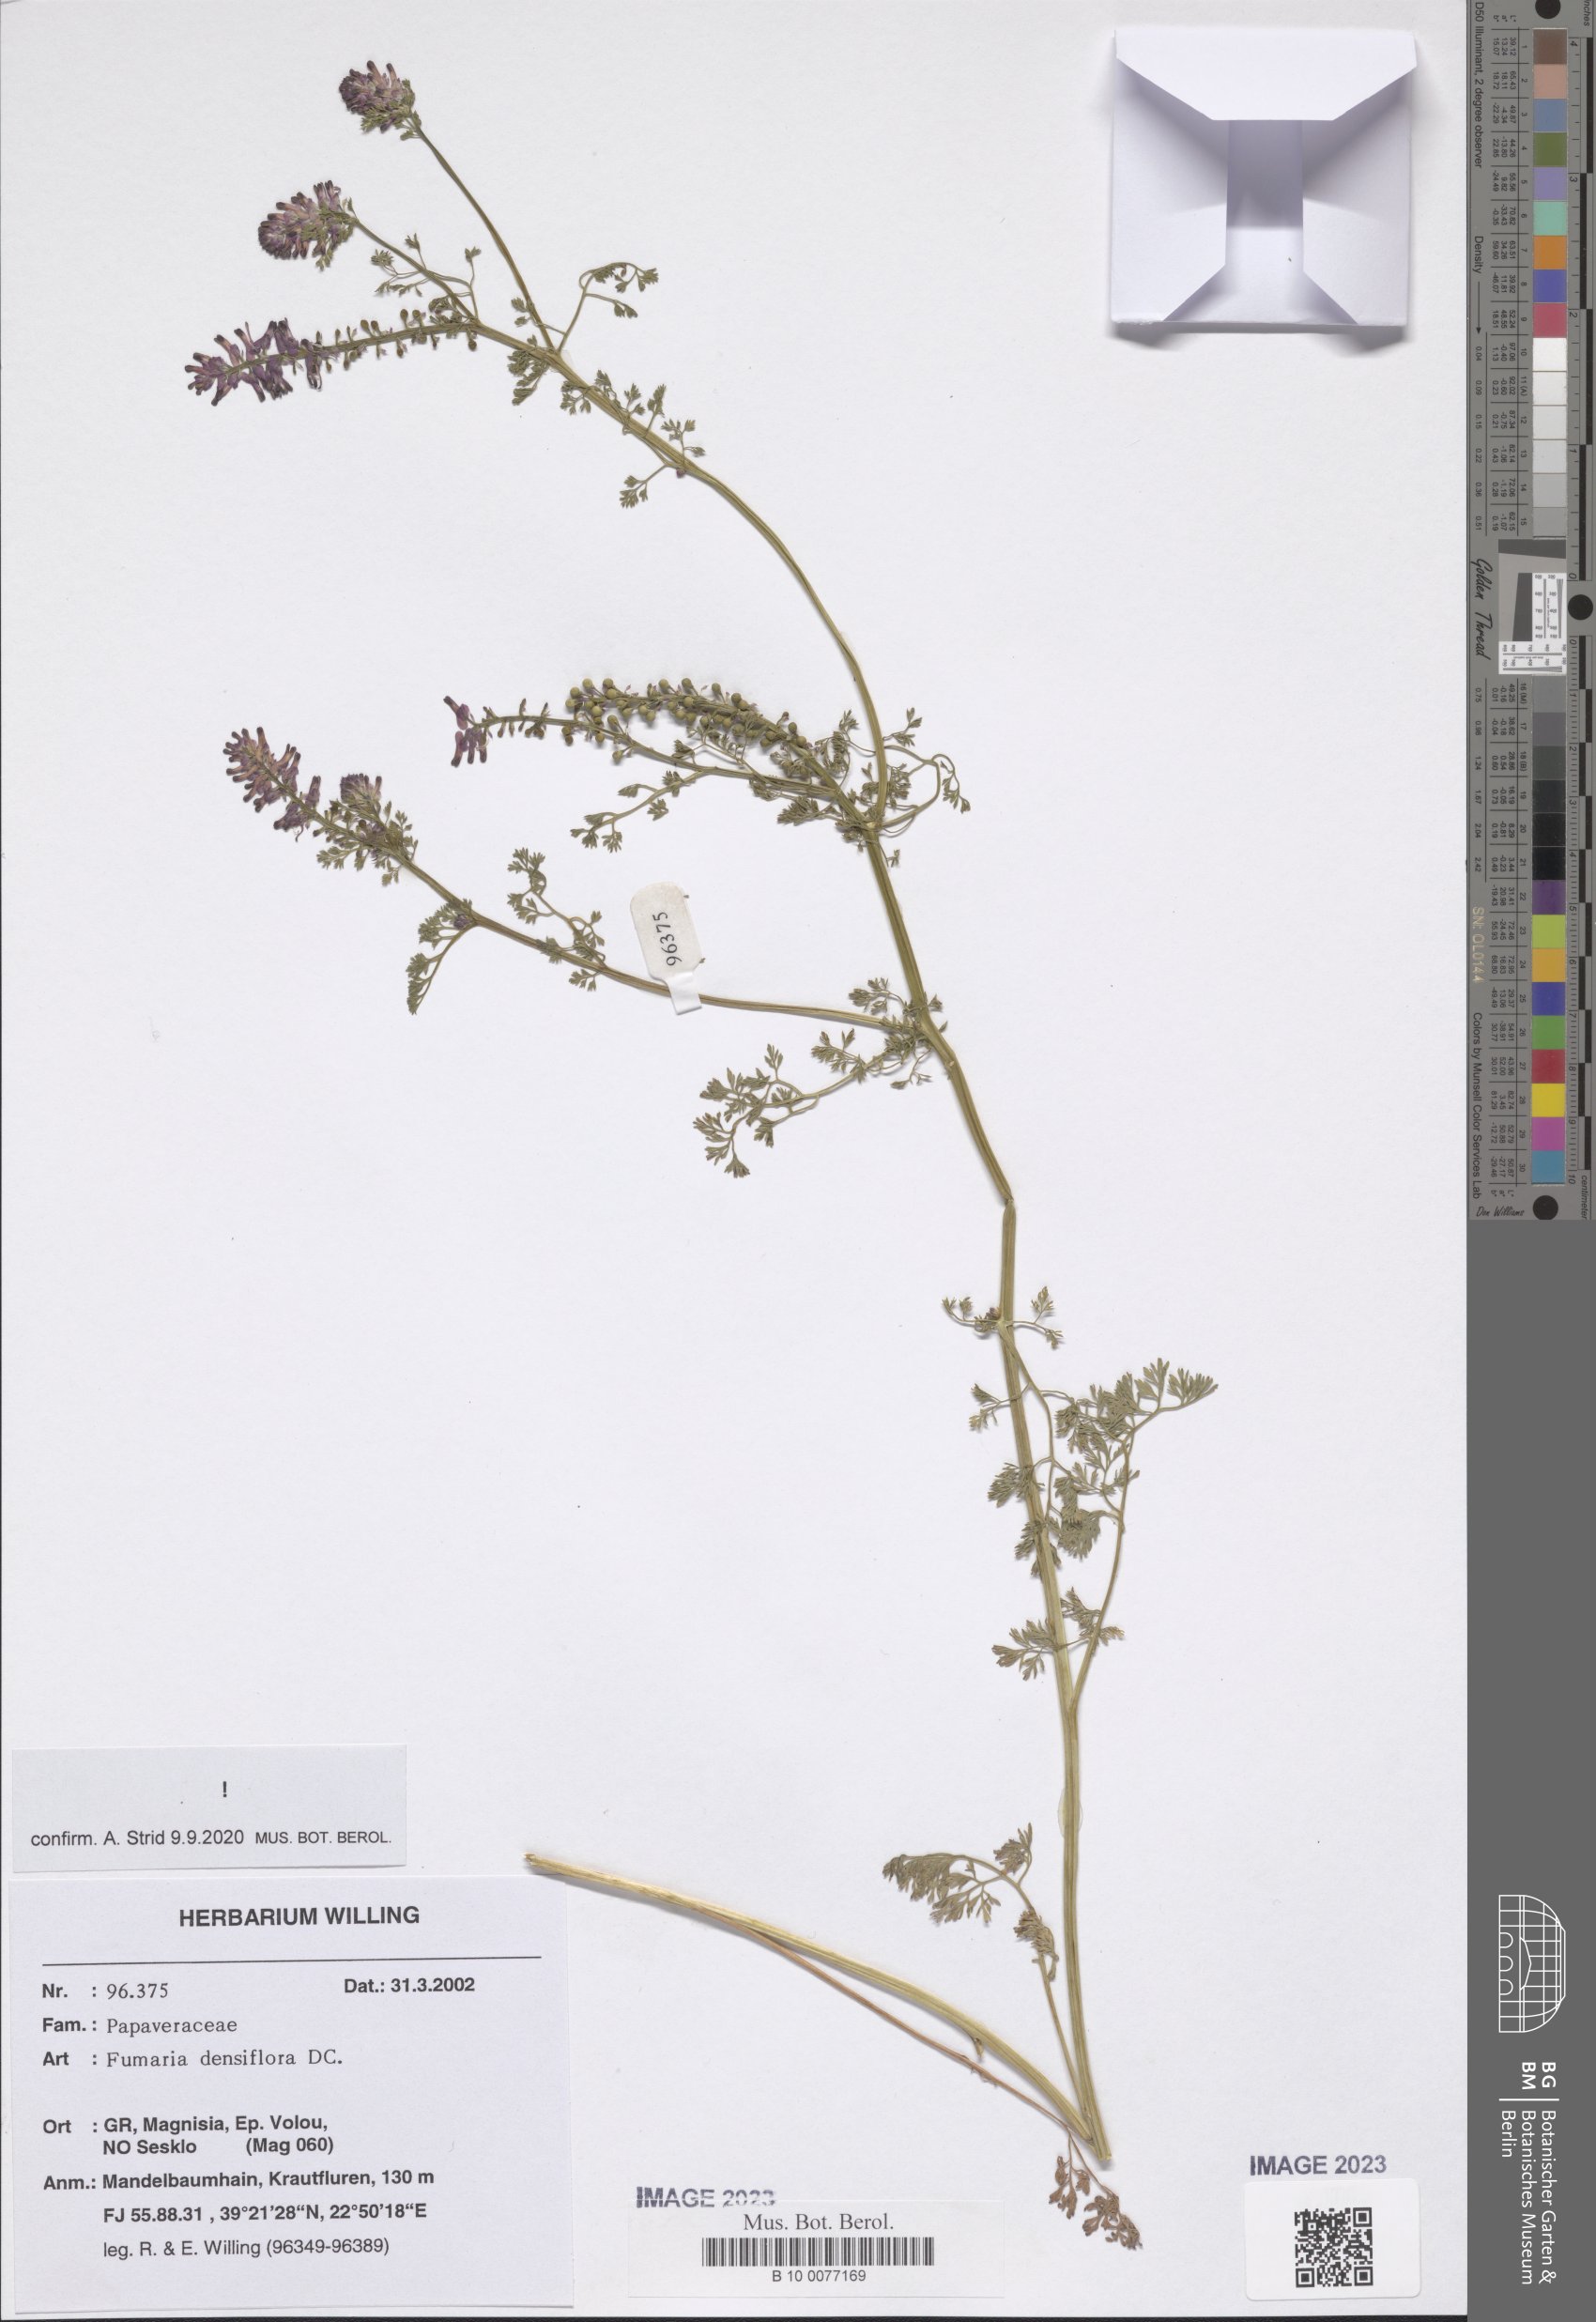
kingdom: Plantae
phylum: Tracheophyta
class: Magnoliopsida
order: Ranunculales
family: Papaveraceae
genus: Fumaria
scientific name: Fumaria densiflora
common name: Dense-flowered fumitory
